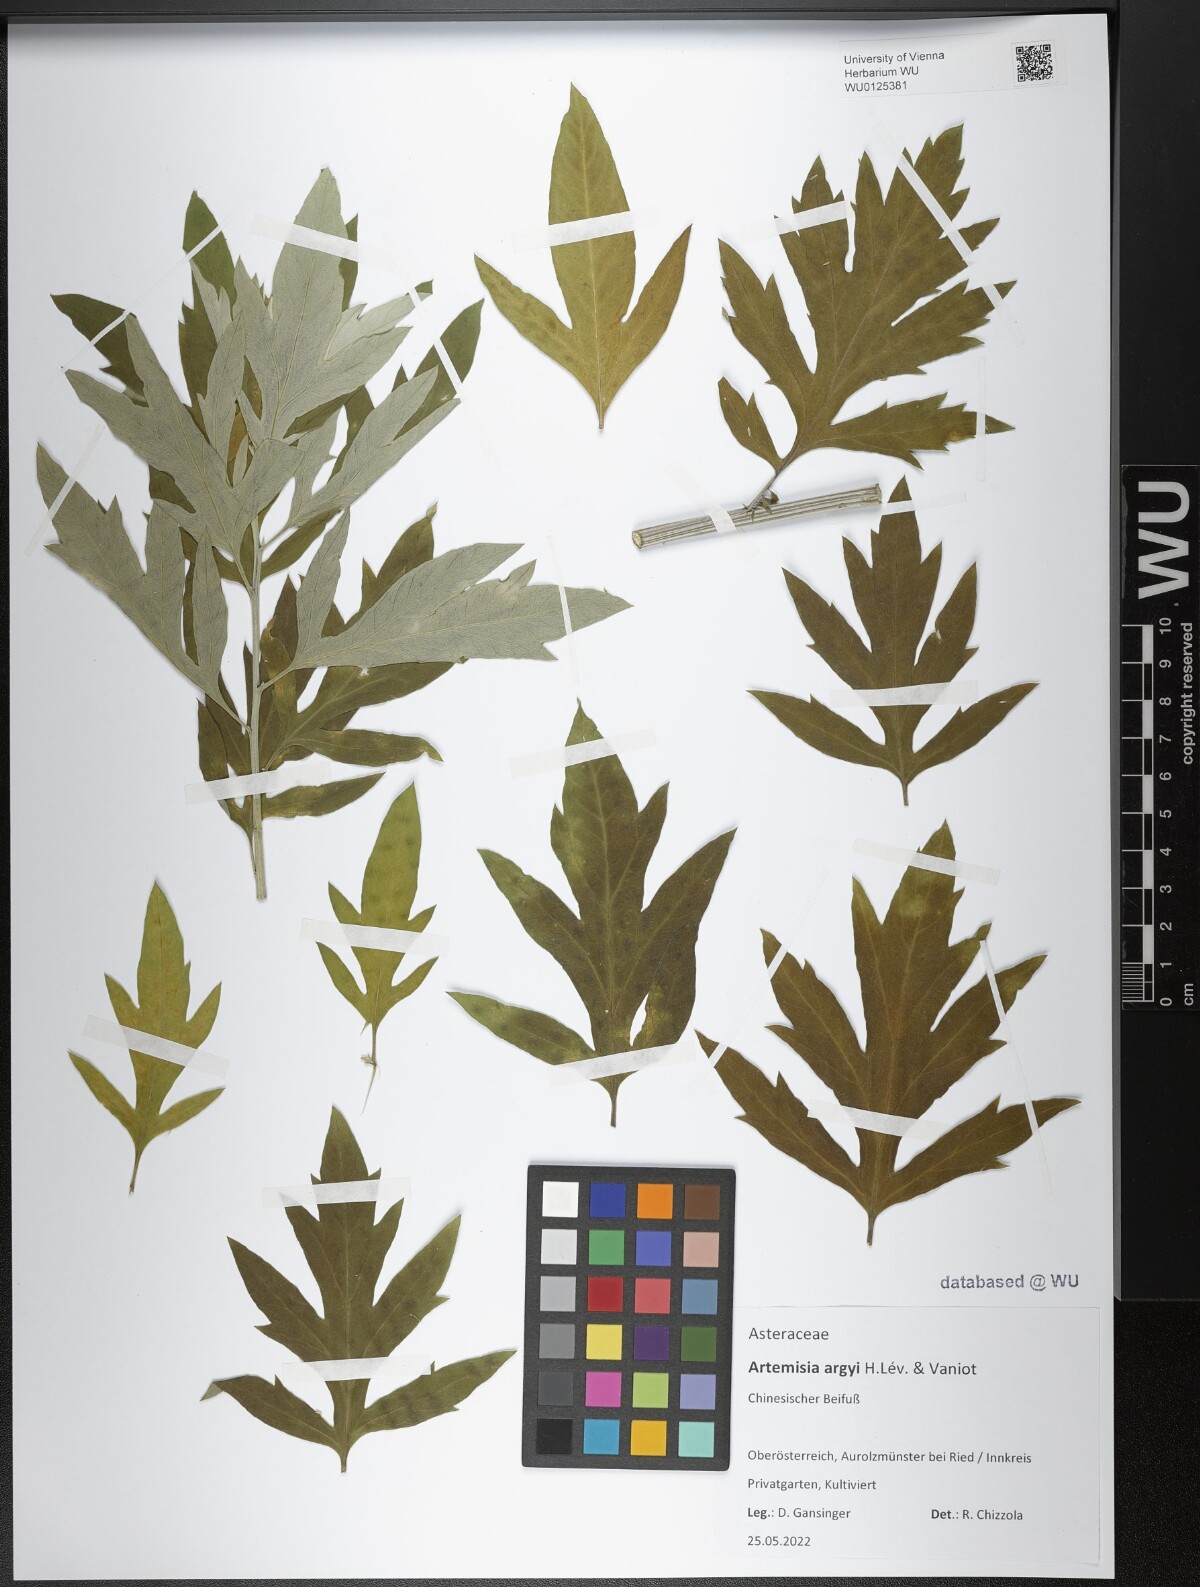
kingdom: Plantae
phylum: Tracheophyta
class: Magnoliopsida
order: Asterales
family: Asteraceae
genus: Artemisia
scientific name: Artemisia argyi
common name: Chinese mugwort
